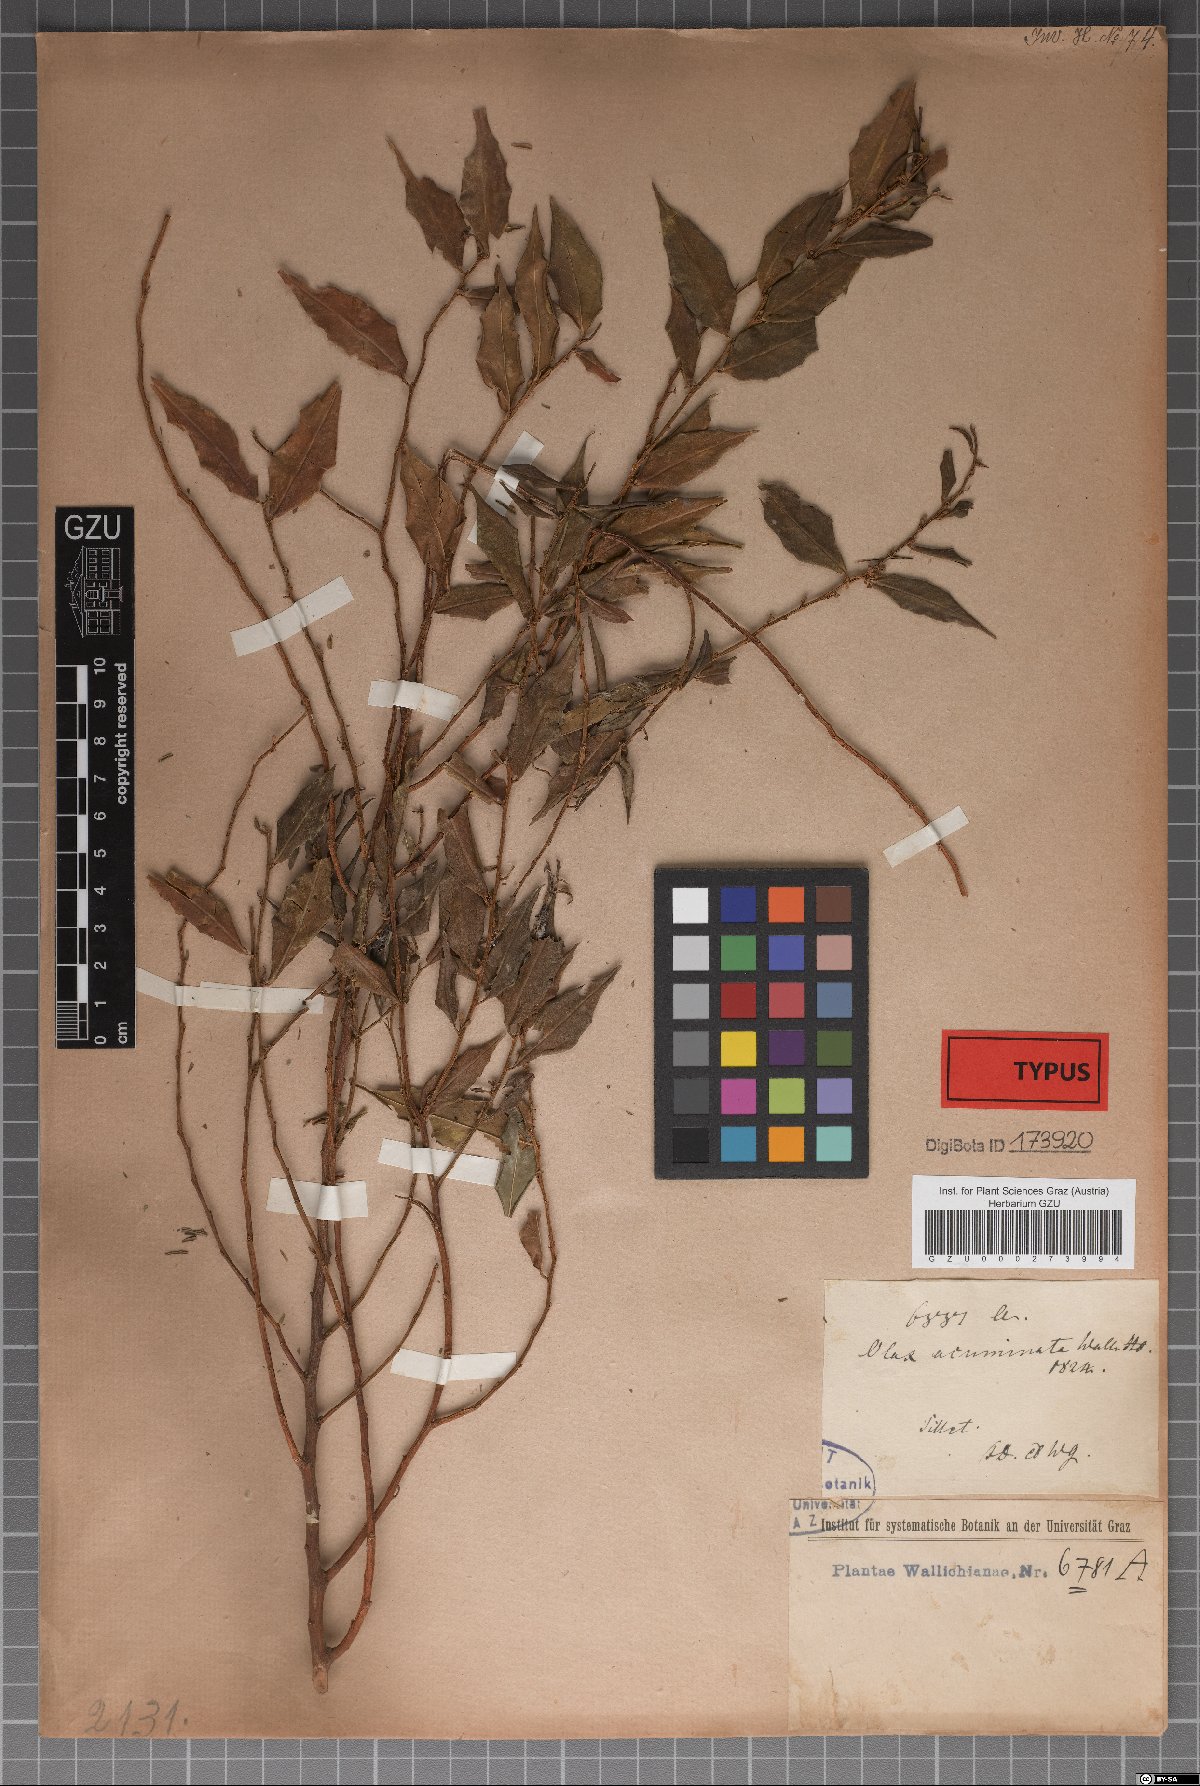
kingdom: Plantae
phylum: Tracheophyta
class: Magnoliopsida
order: Santalales
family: Olacaceae
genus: Olax
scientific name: Olax acuminata
